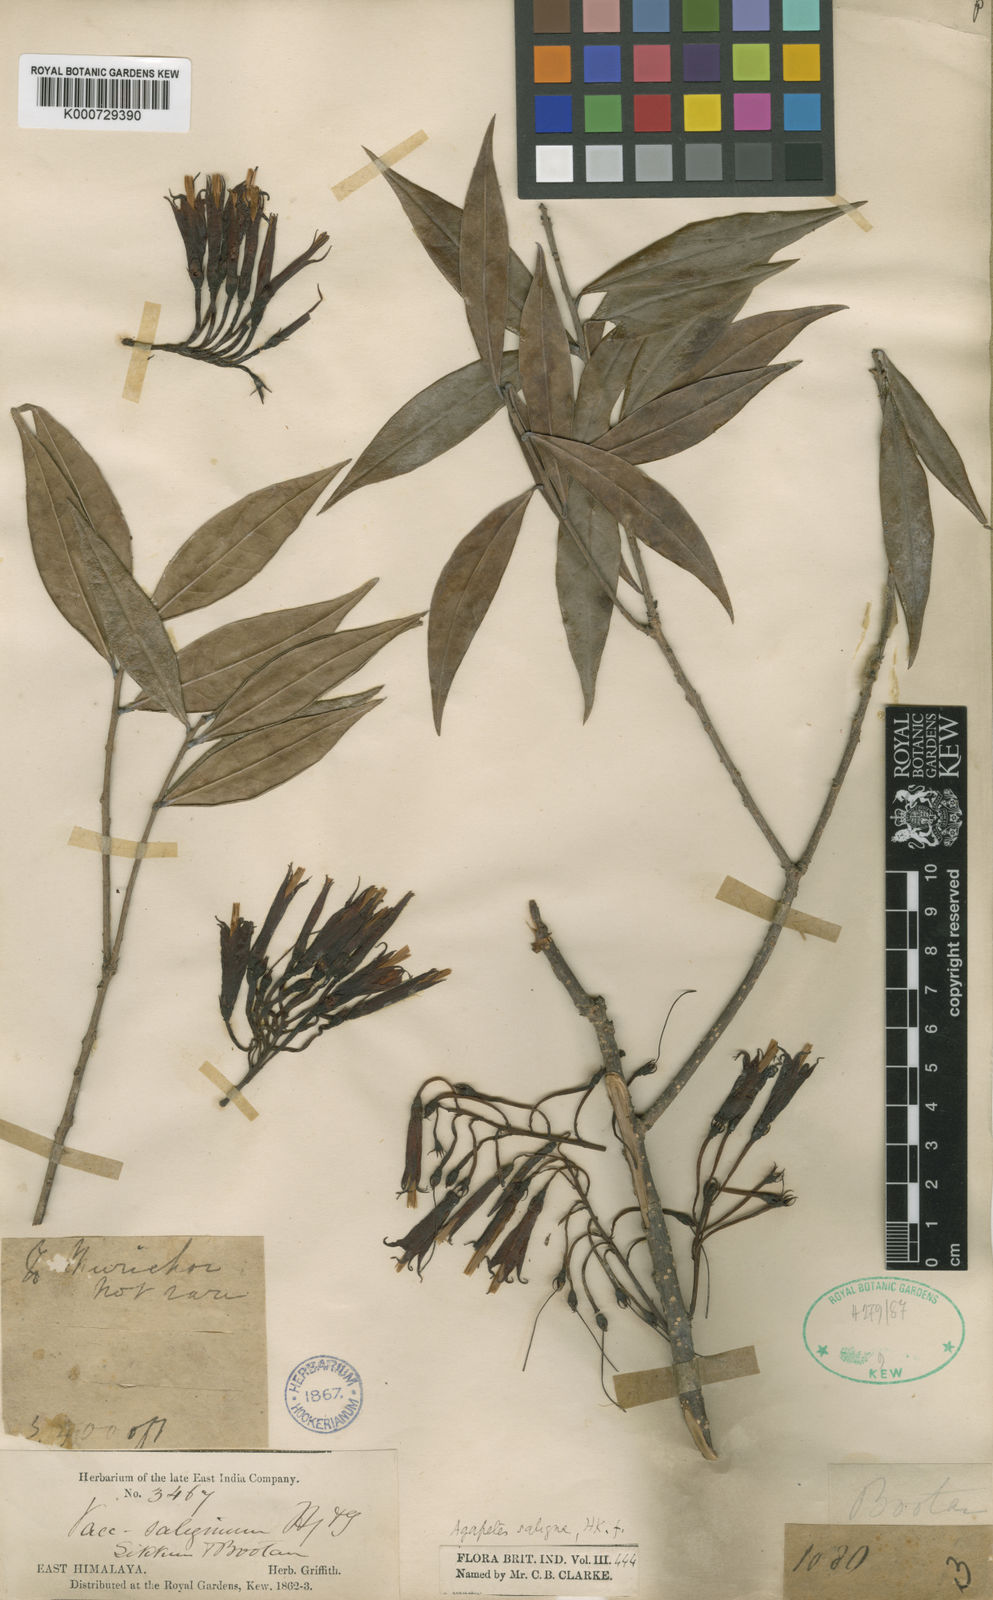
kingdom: Plantae
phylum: Tracheophyta
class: Magnoliopsida
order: Ericales
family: Ericaceae
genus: Agapetes
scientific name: Agapetes saligna
